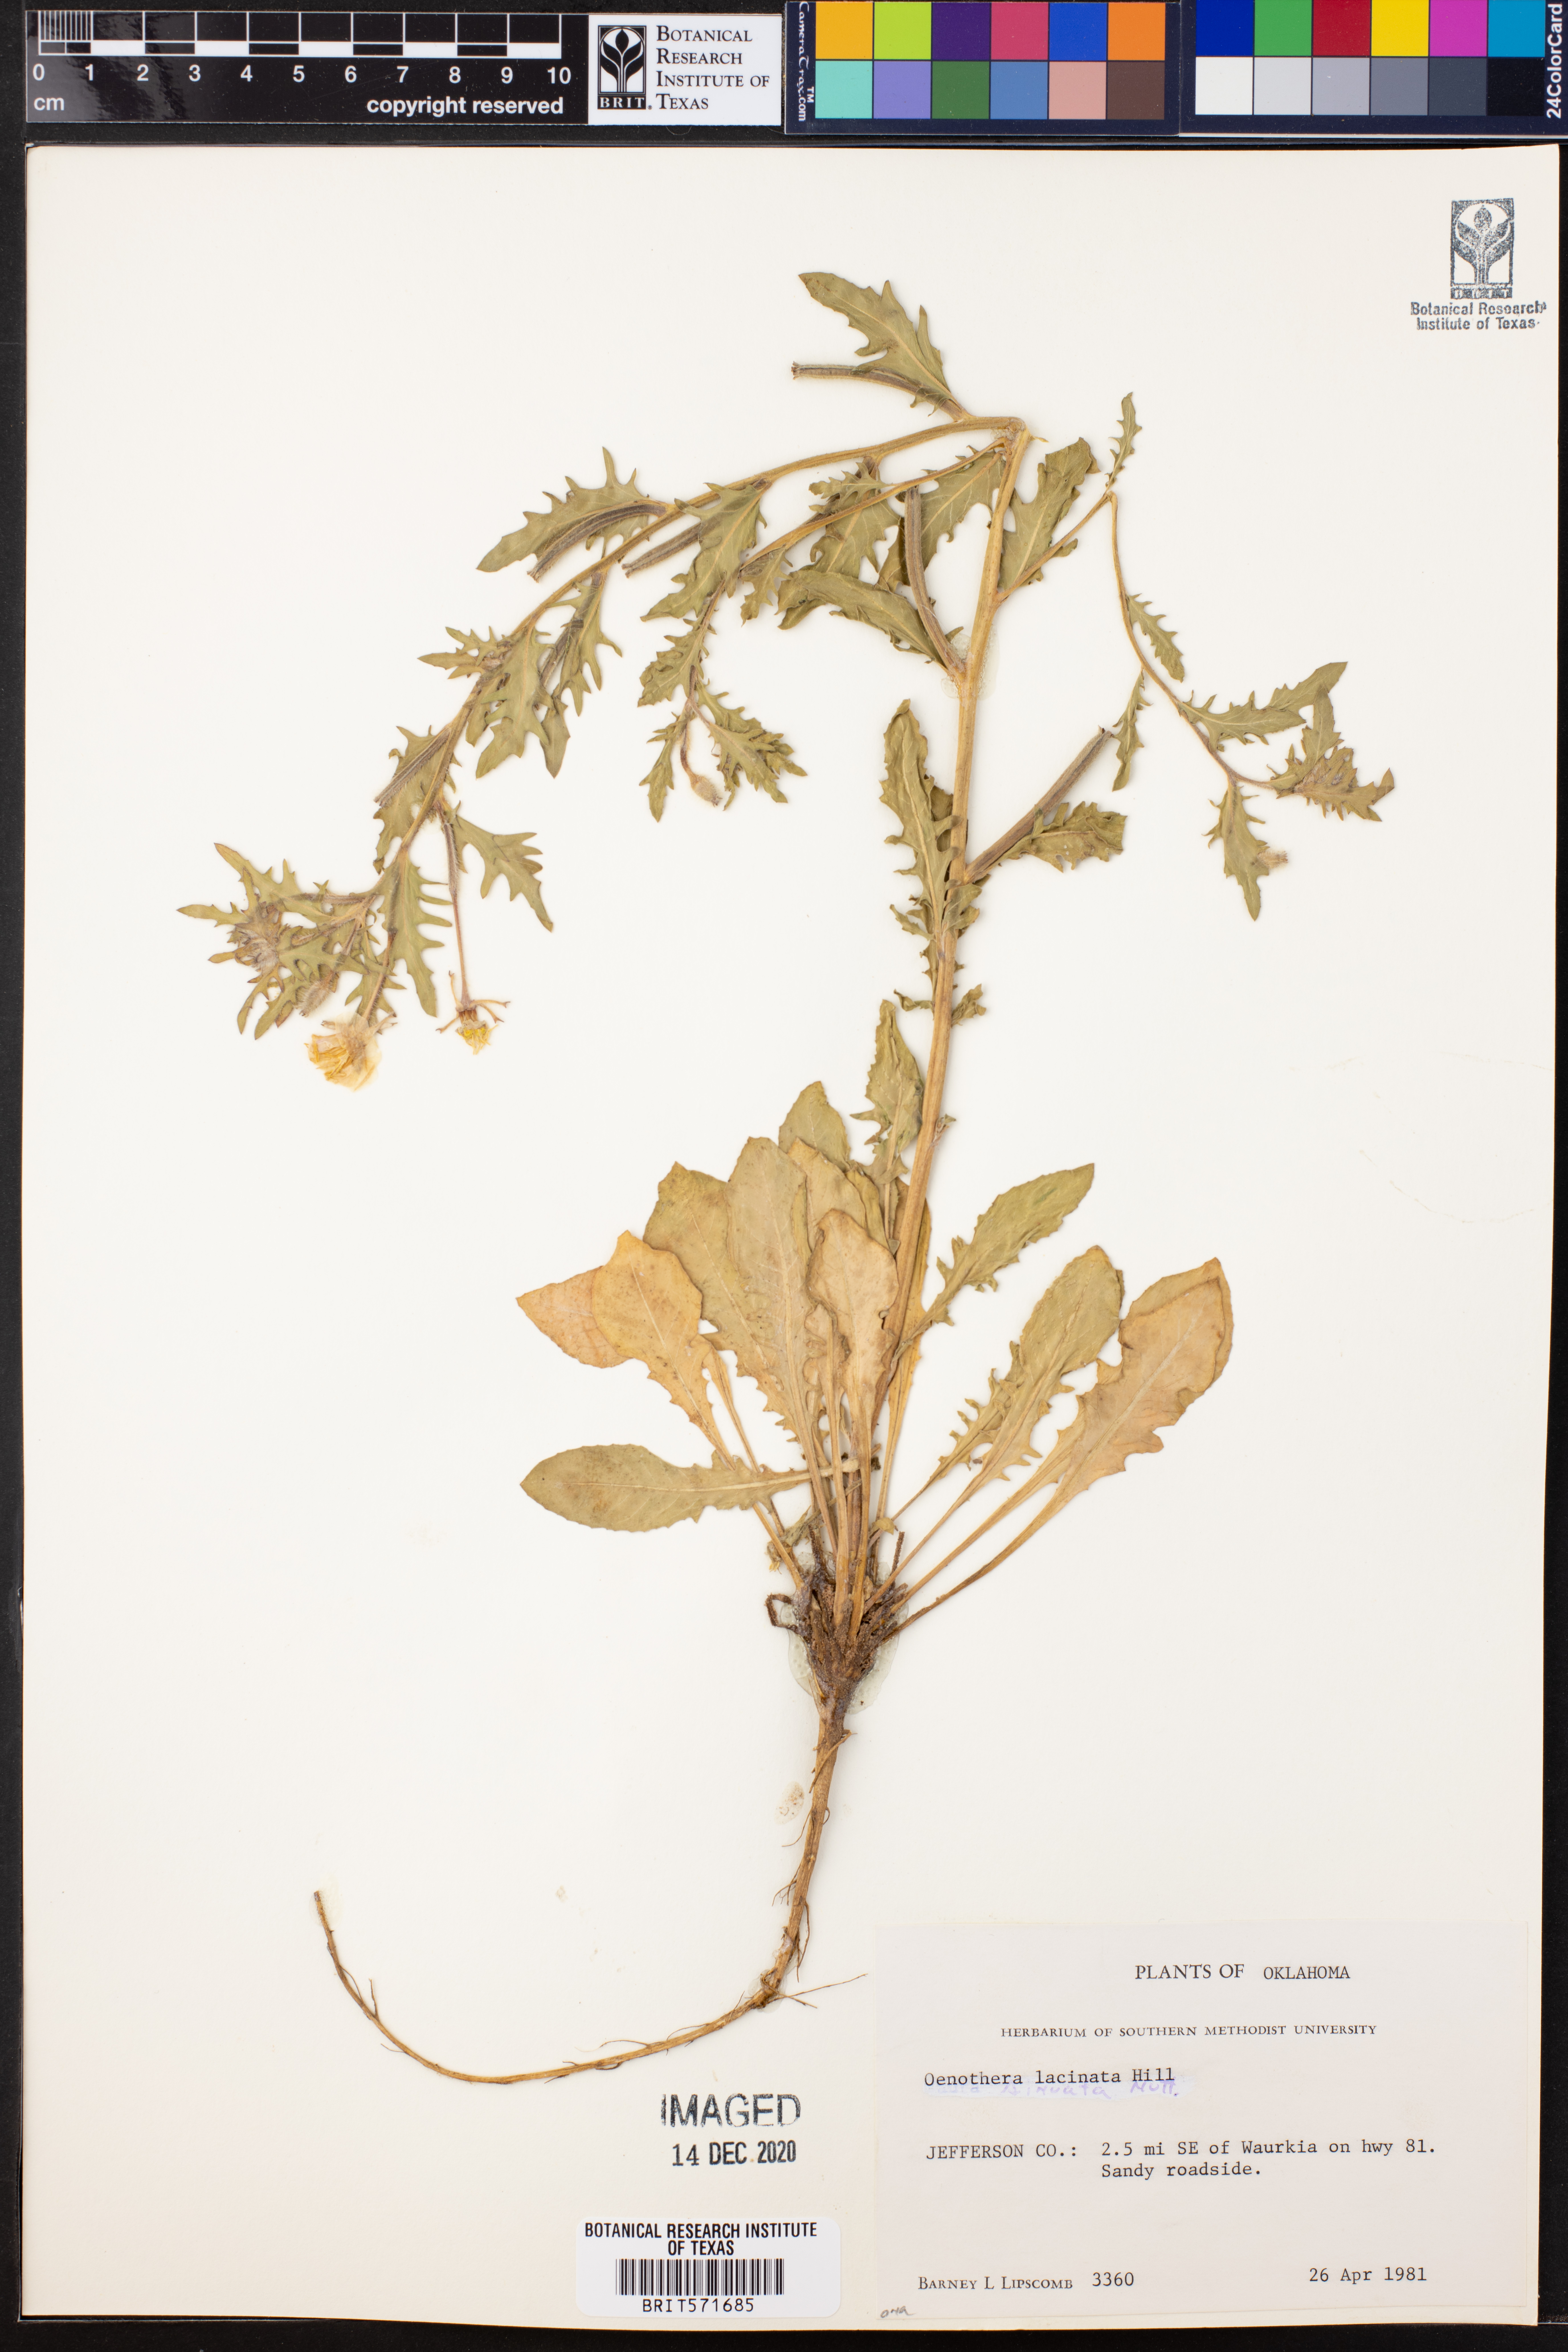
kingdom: Plantae
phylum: Tracheophyta
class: Magnoliopsida
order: Myrtales
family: Onagraceae
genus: Oenothera
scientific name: Oenothera laciniata
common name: Cut-leaved evening-primrose
